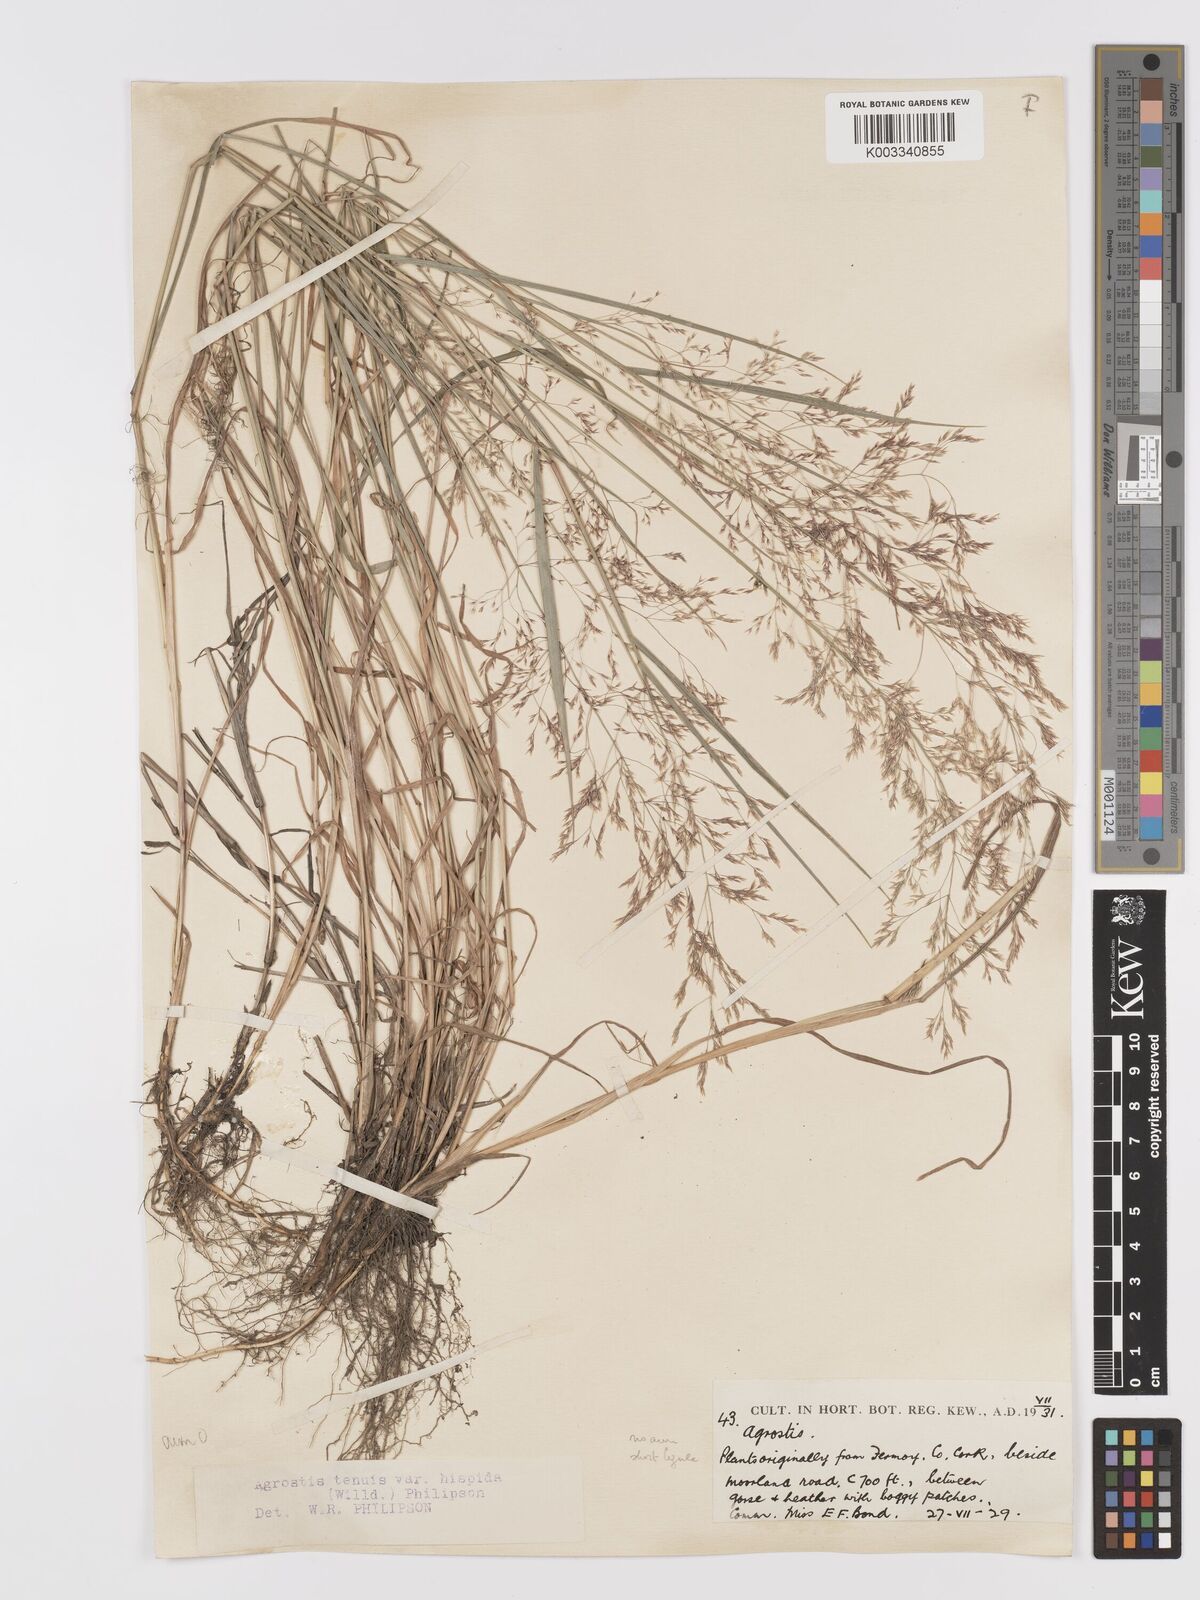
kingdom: Plantae
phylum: Tracheophyta
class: Liliopsida
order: Poales
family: Poaceae
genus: Agrostis
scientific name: Agrostis capillaris
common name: Colonial bentgrass
